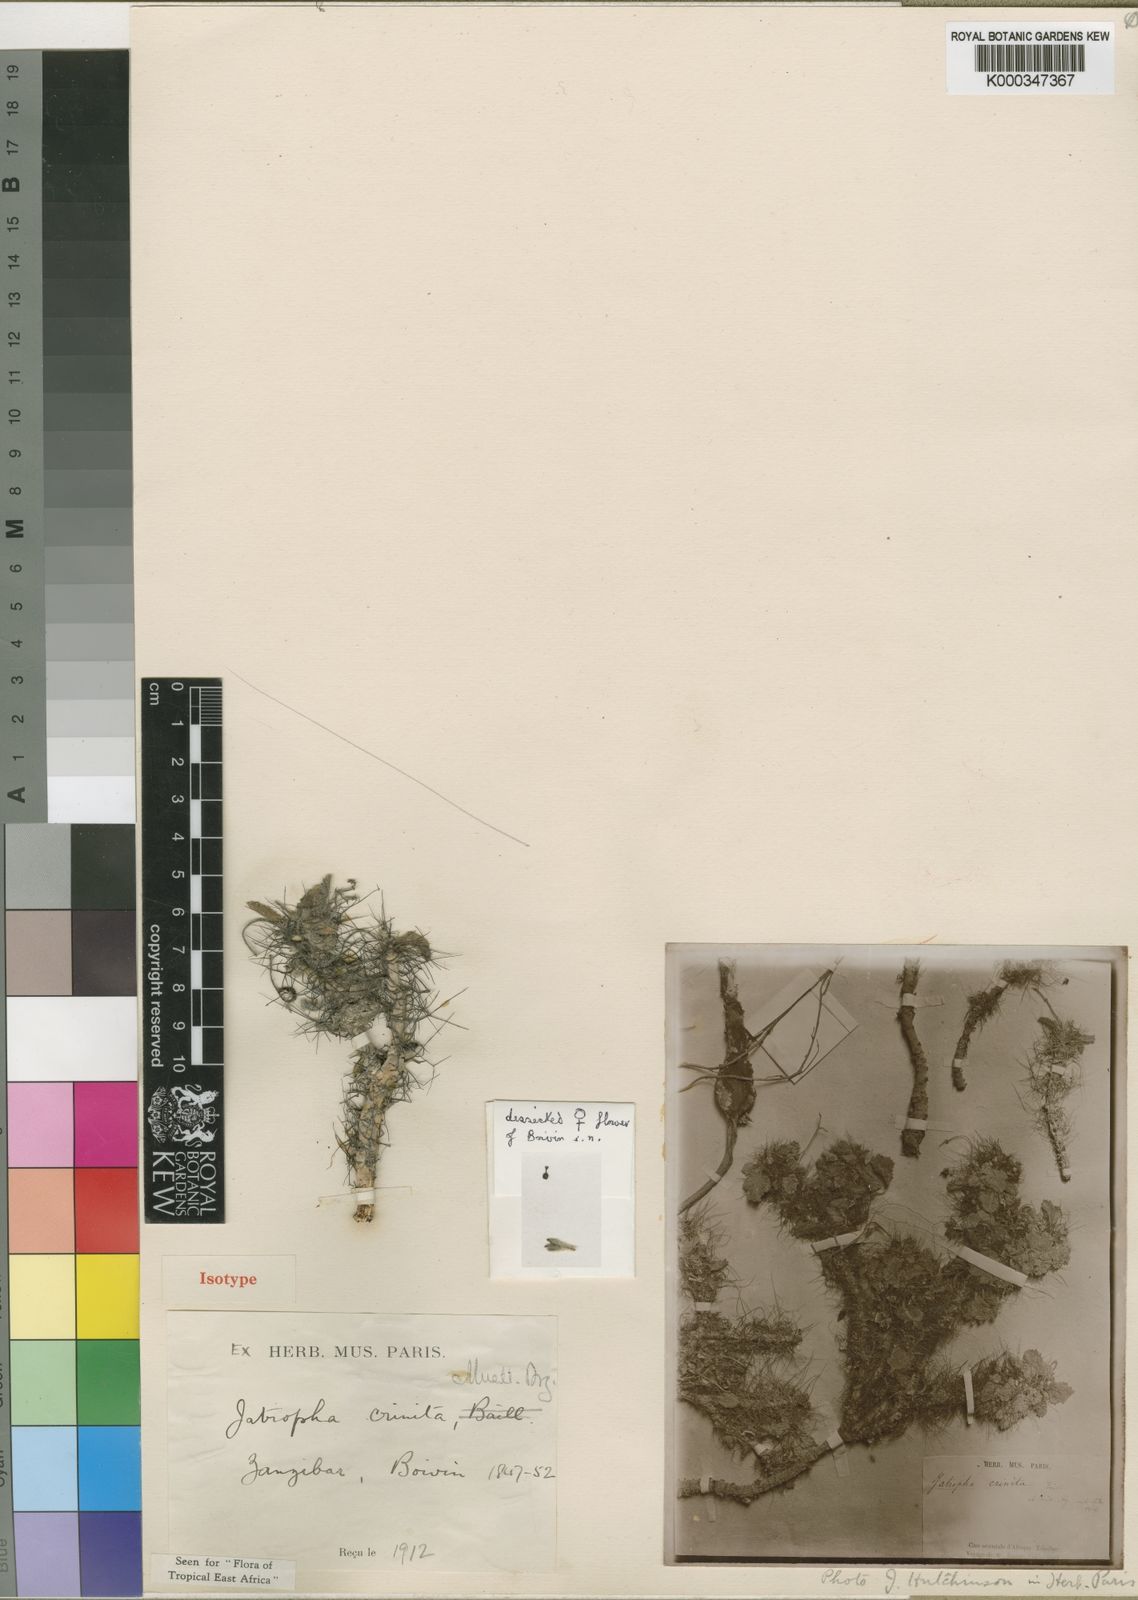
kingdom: Plantae
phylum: Tracheophyta
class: Magnoliopsida
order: Malpighiales
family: Euphorbiaceae
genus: Jatropha
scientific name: Jatropha
